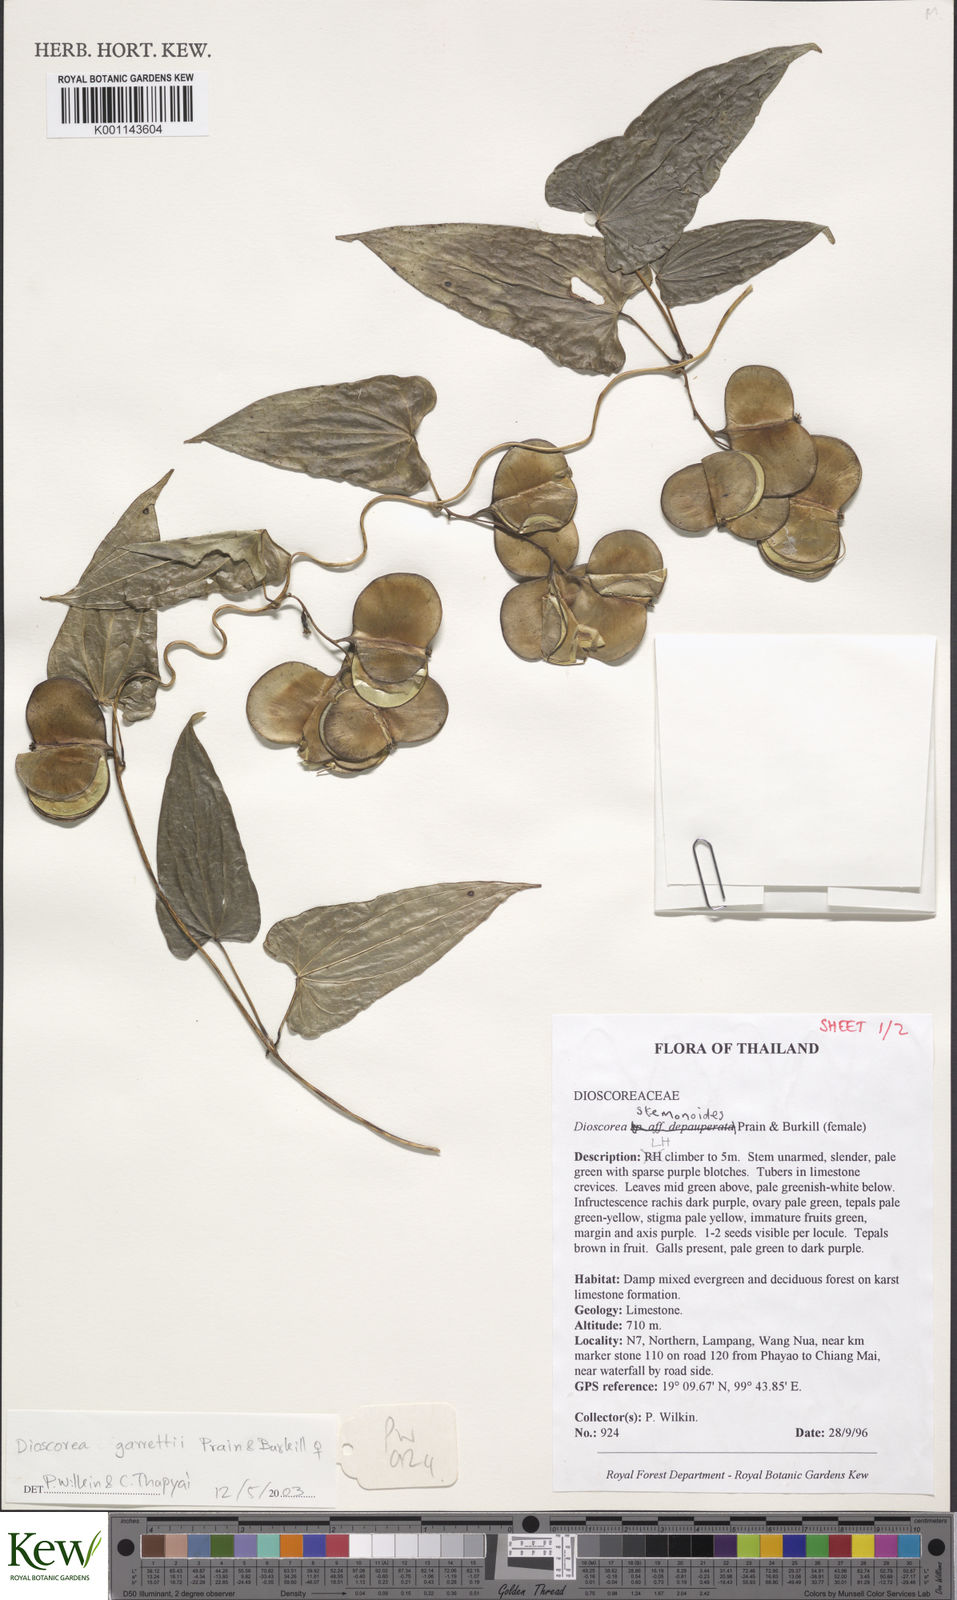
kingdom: Plantae
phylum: Tracheophyta
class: Liliopsida
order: Dioscoreales
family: Dioscoreaceae
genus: Dioscorea
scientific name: Dioscorea garrettii
